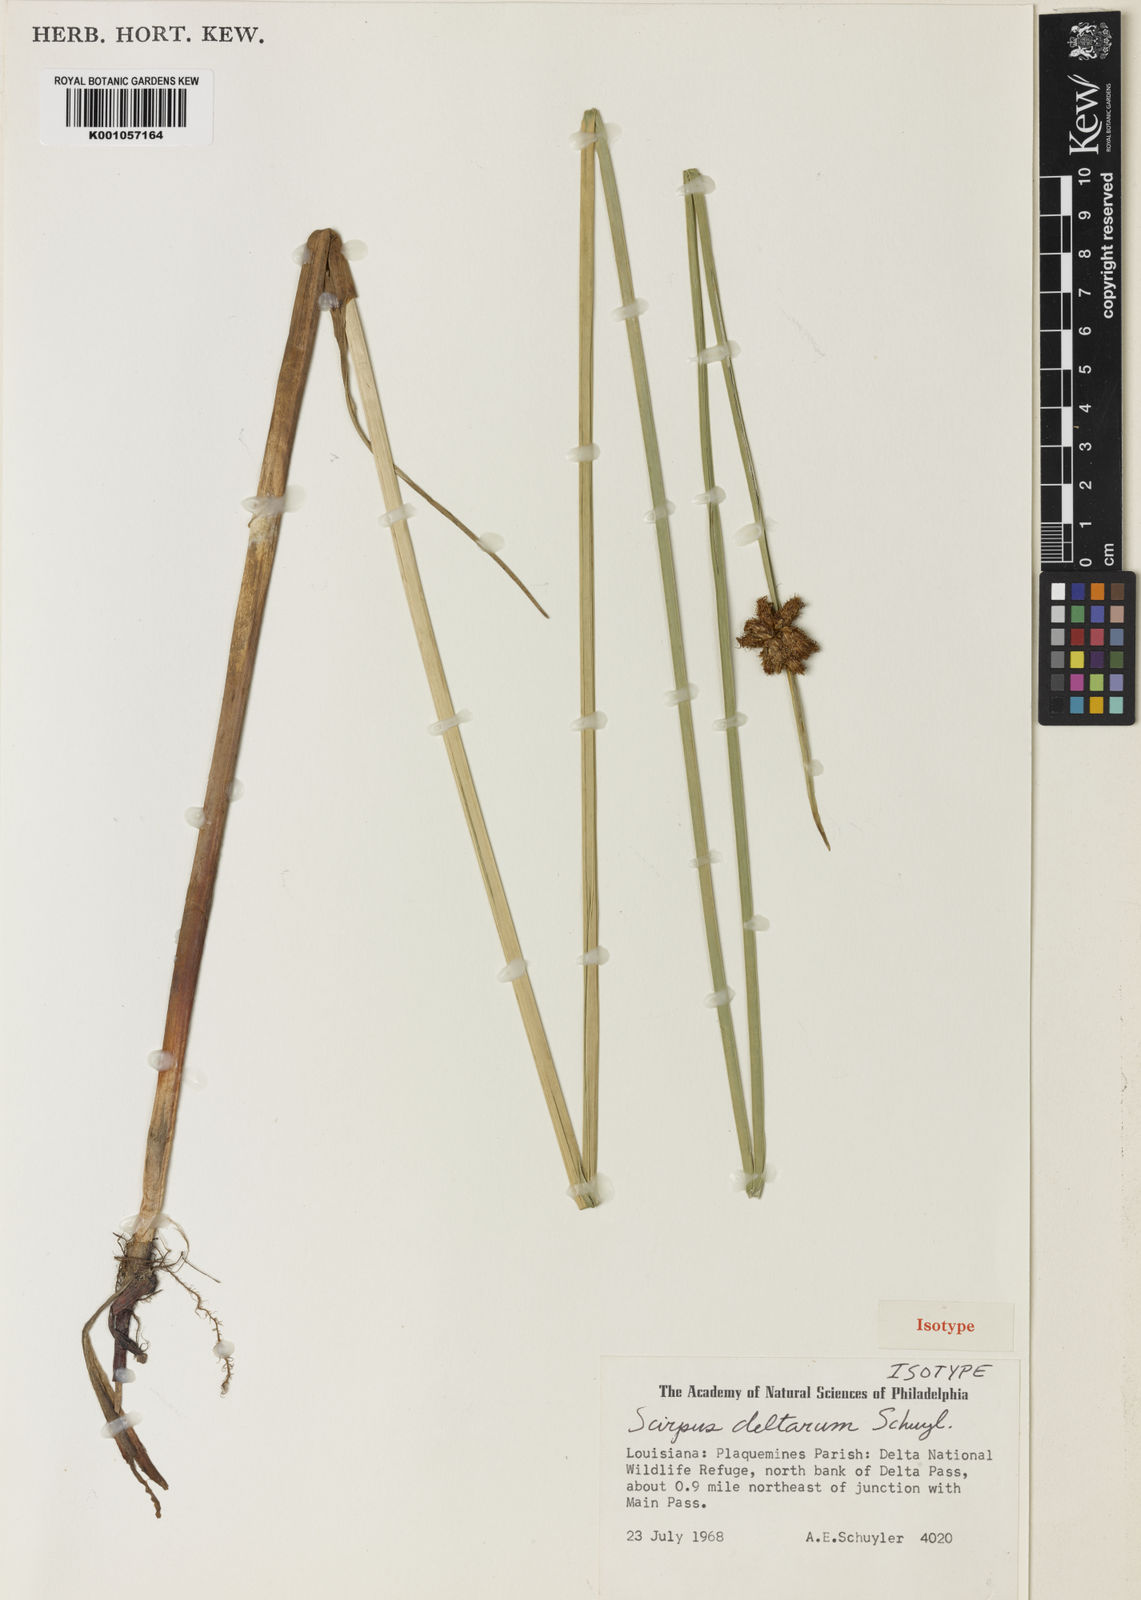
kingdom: Plantae
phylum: Tracheophyta
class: Liliopsida
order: Poales
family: Cyperaceae
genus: Schoenoplectus
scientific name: Schoenoplectus
